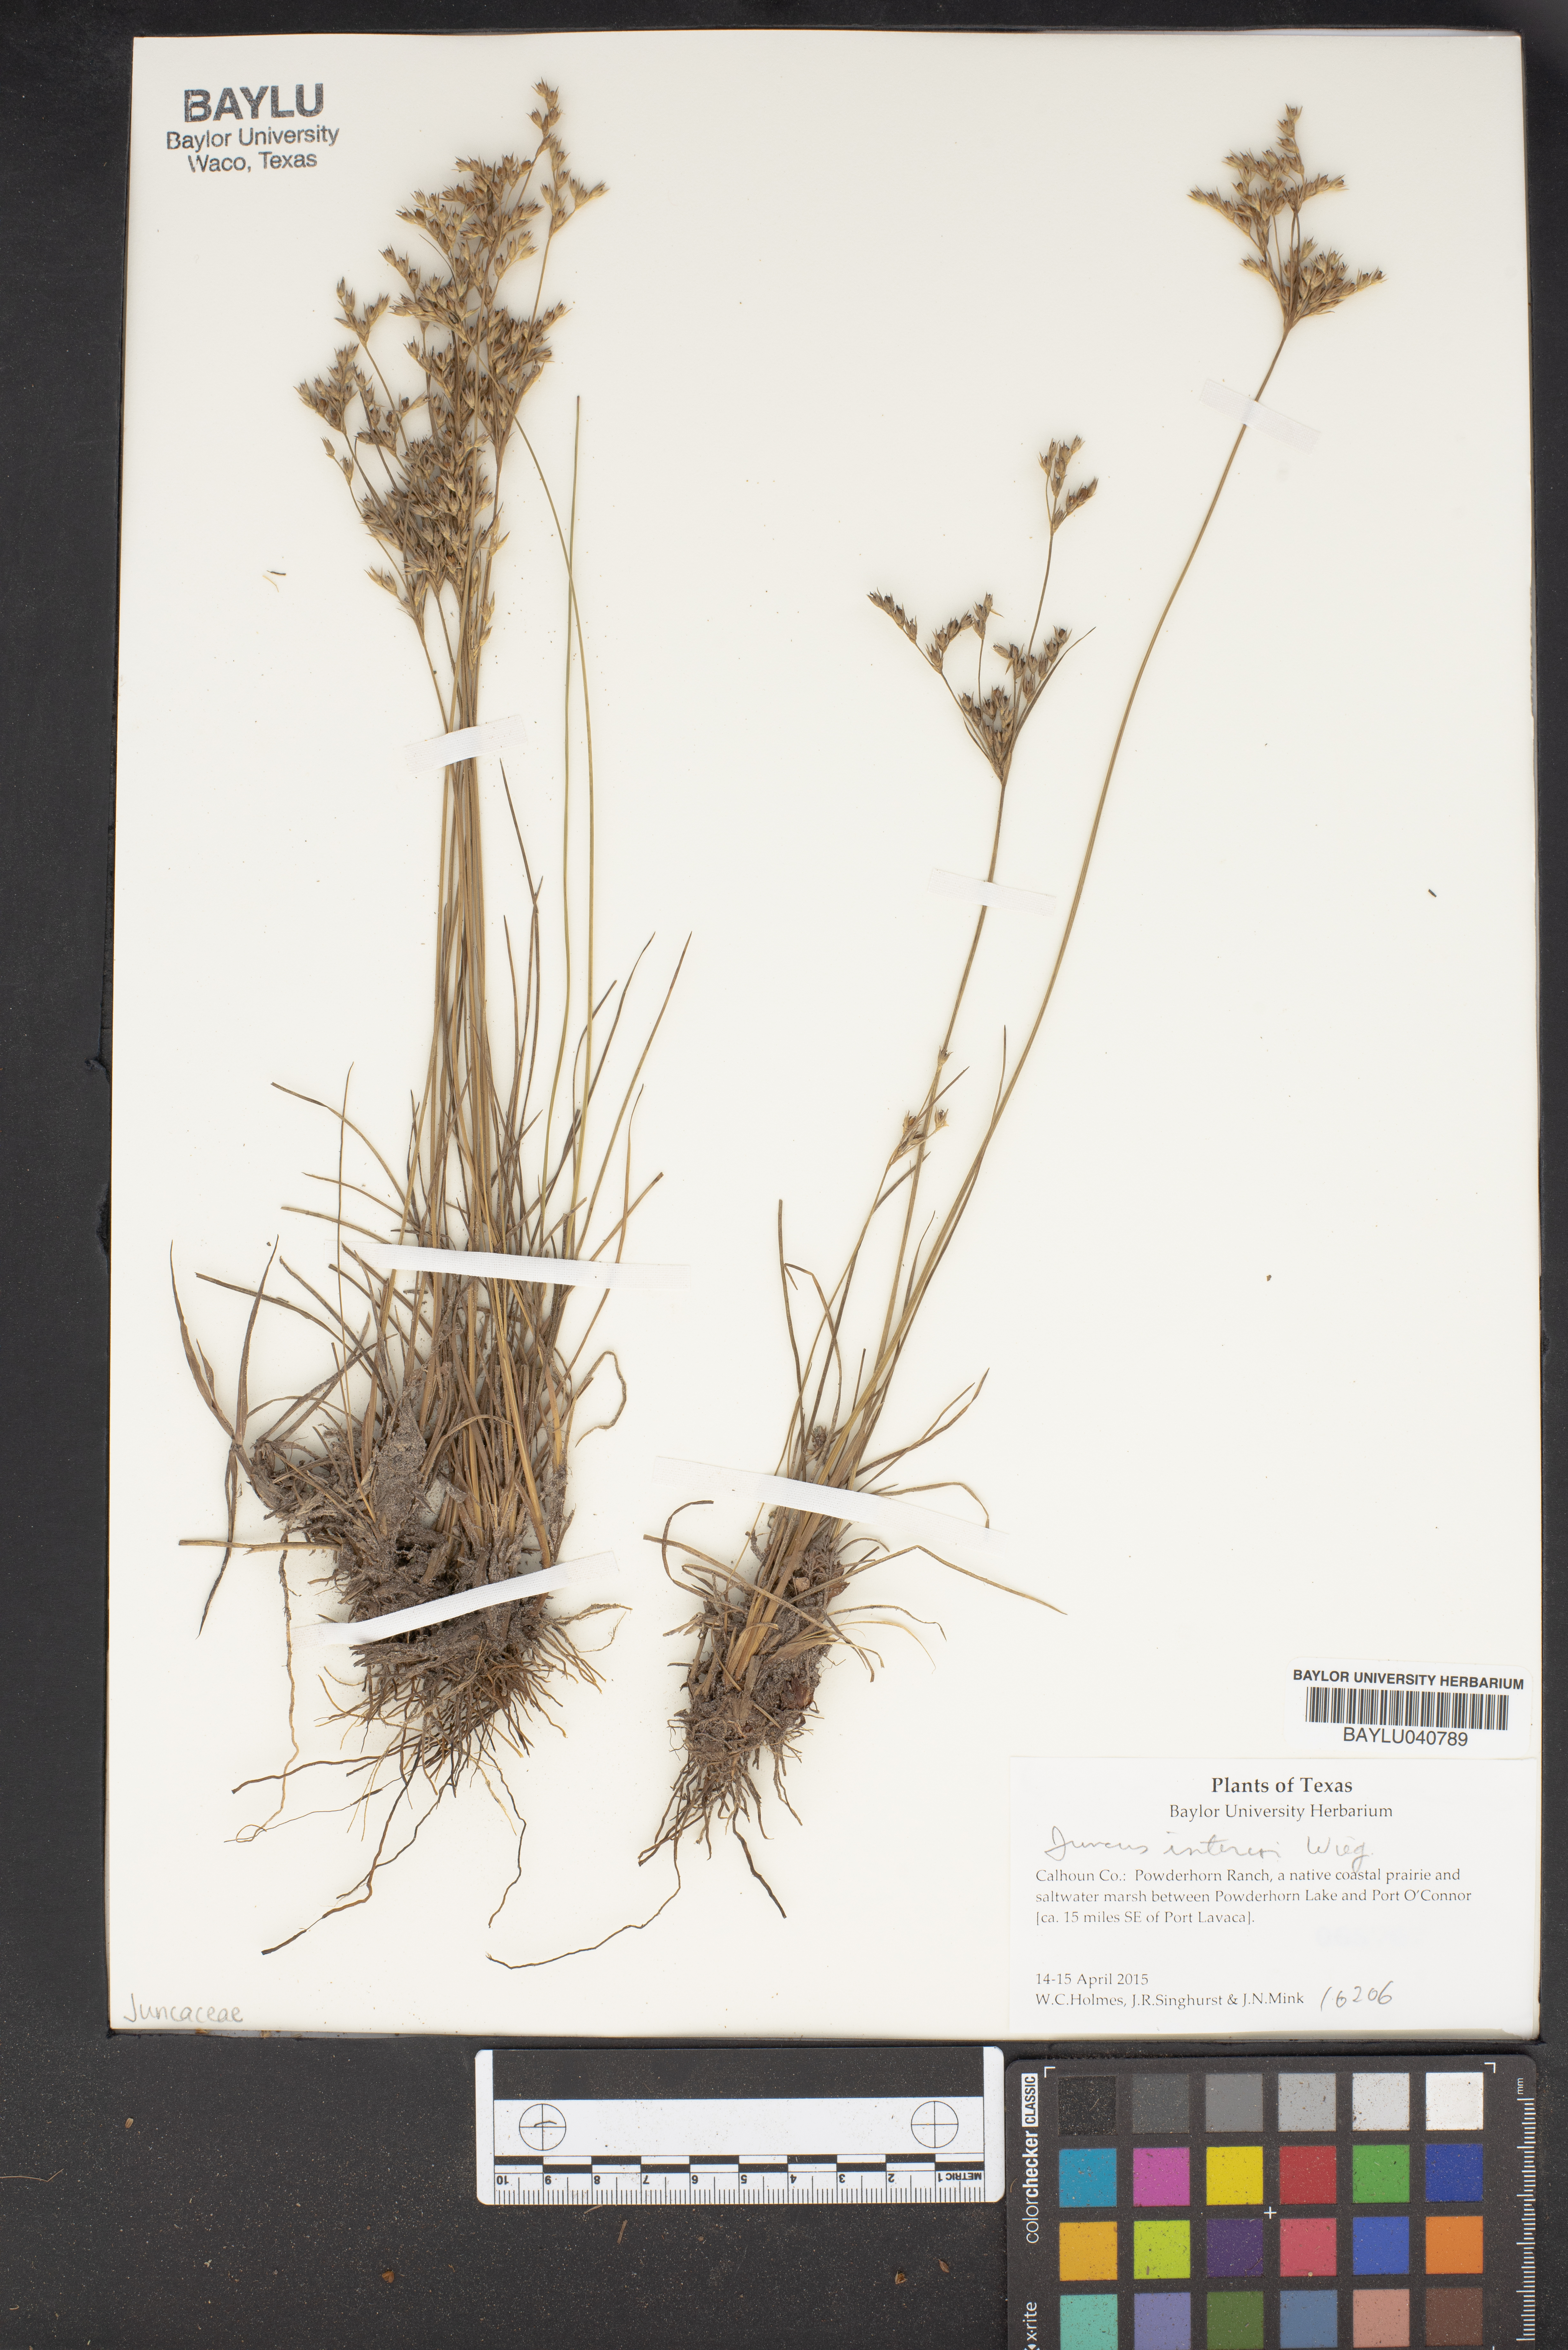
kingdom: Plantae
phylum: Tracheophyta
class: Liliopsida
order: Poales
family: Juncaceae
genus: Juncus
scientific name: Juncus interior
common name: Interior rush
